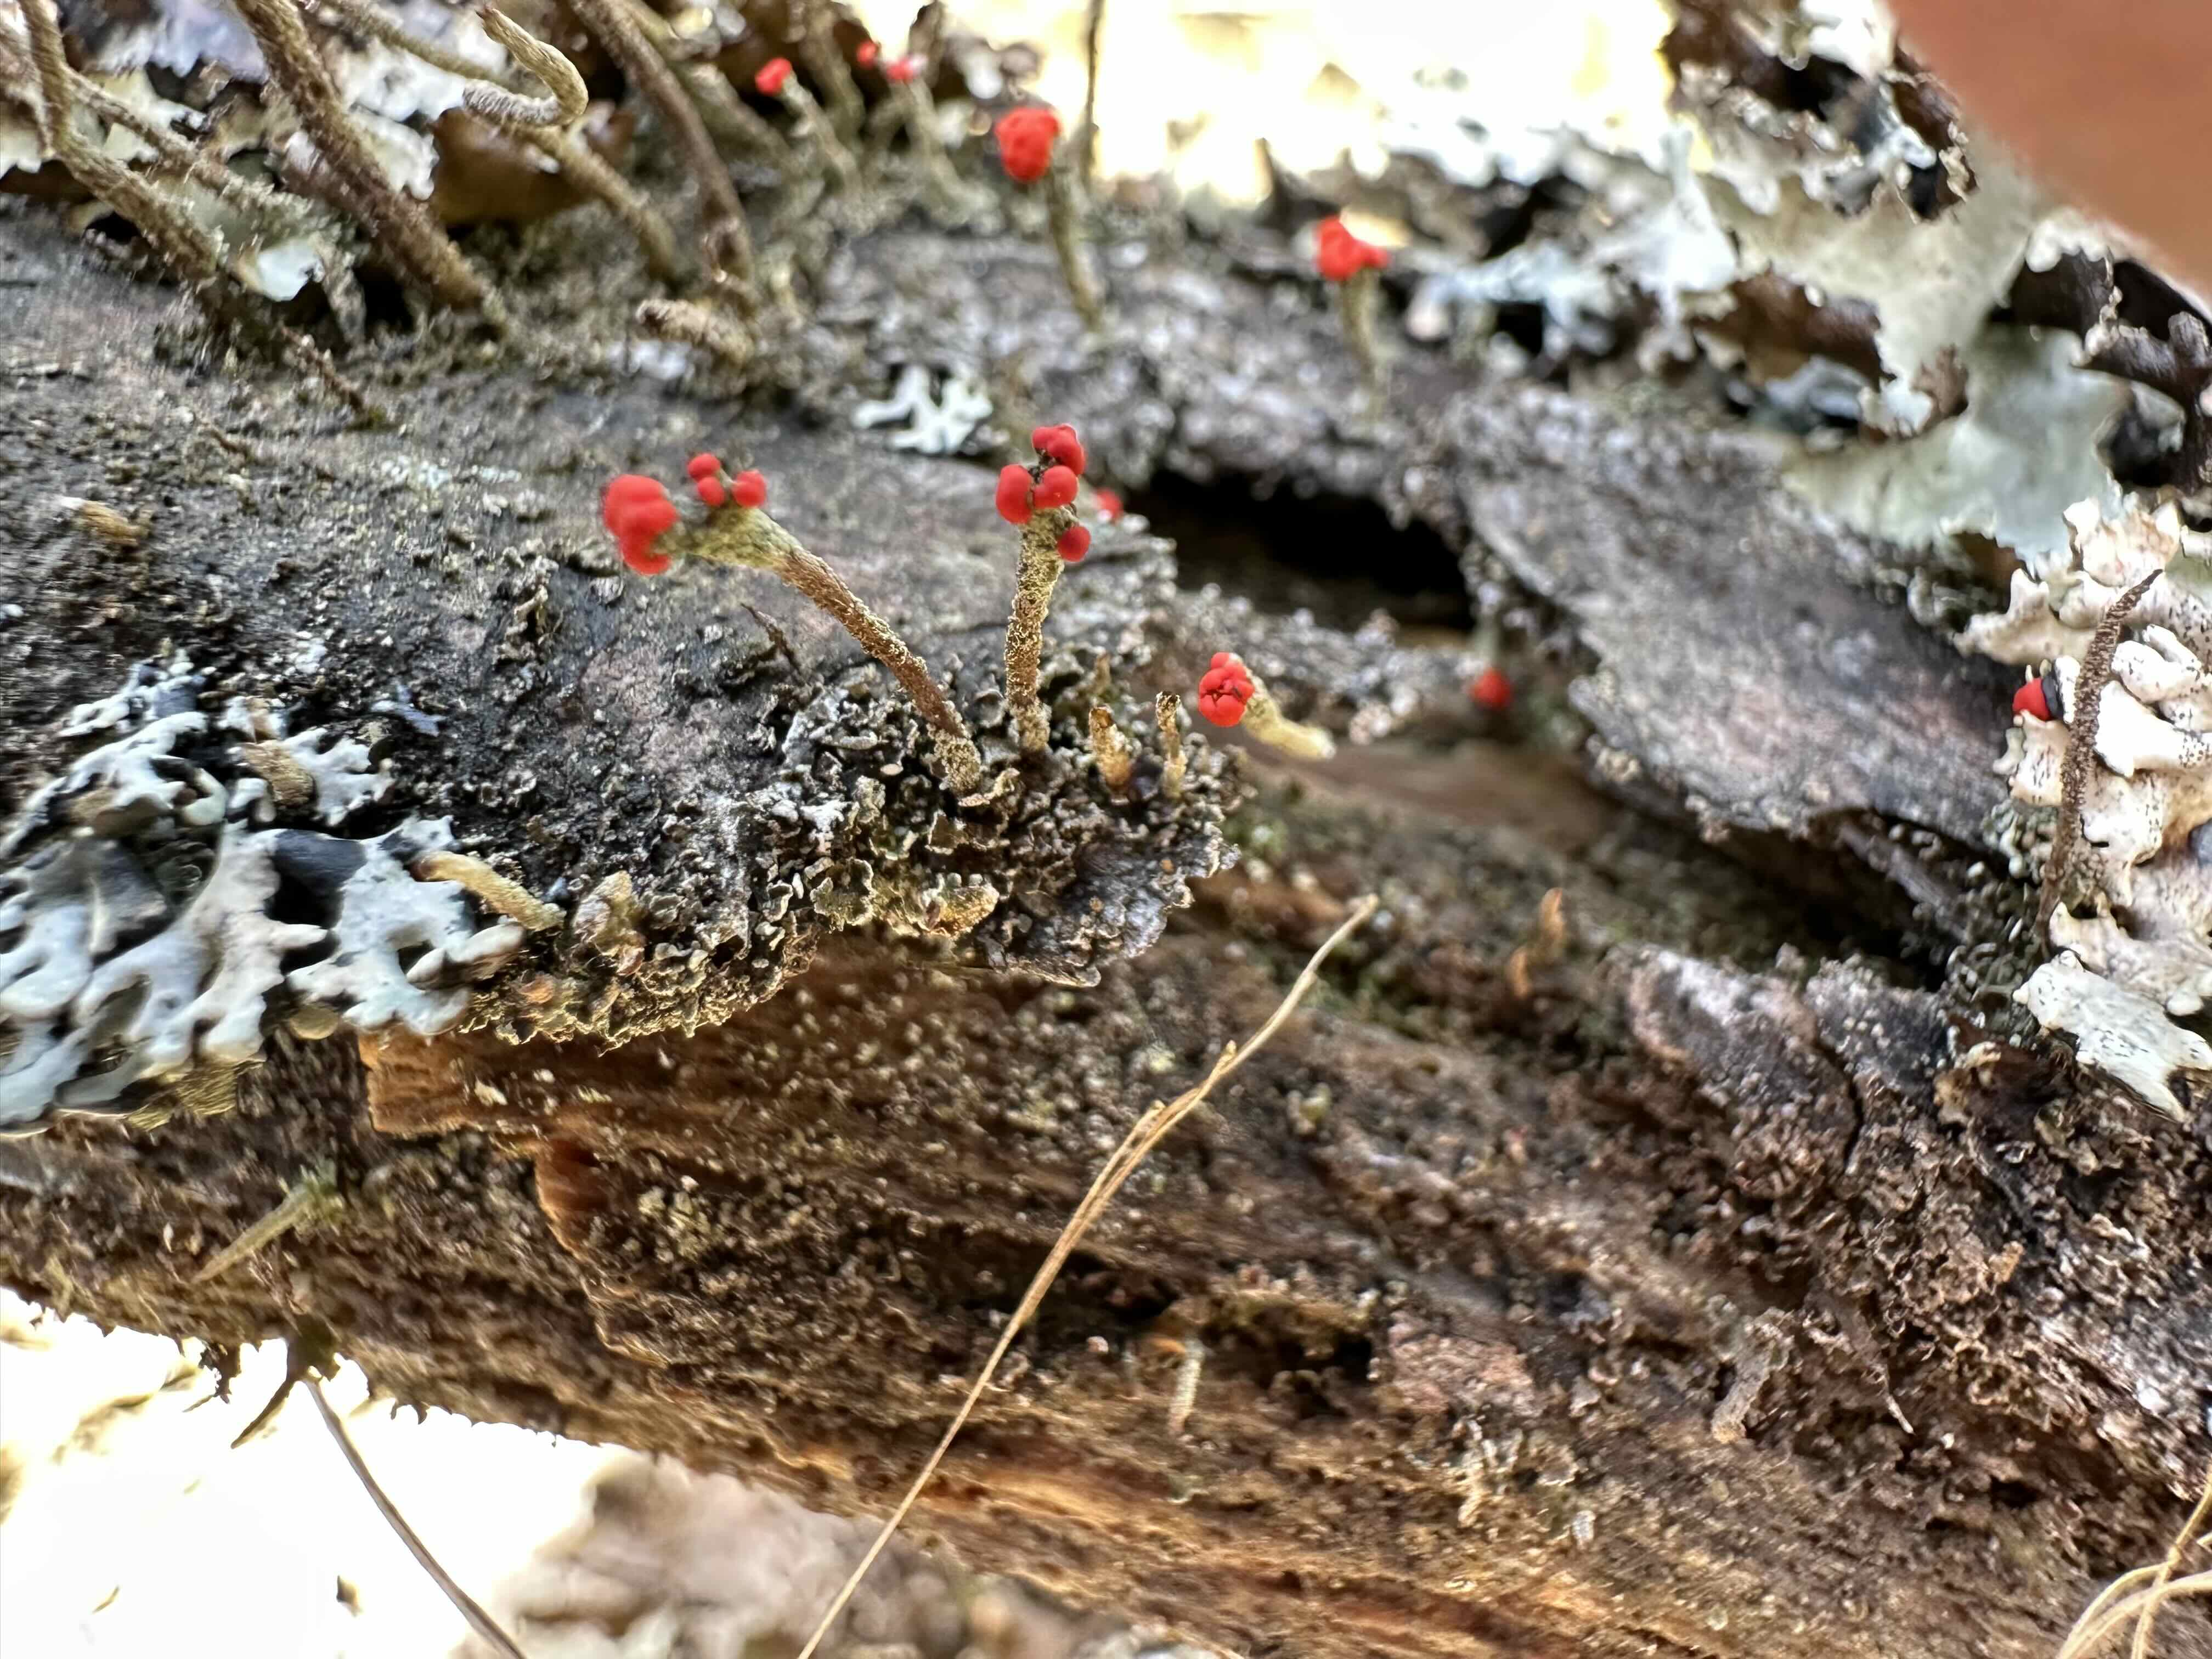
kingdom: Fungi
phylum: Ascomycota
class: Lecanoromycetes
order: Lecanorales
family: Cladoniaceae
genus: Cladonia
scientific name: Cladonia floerkeana
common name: lakrød bægerlav
